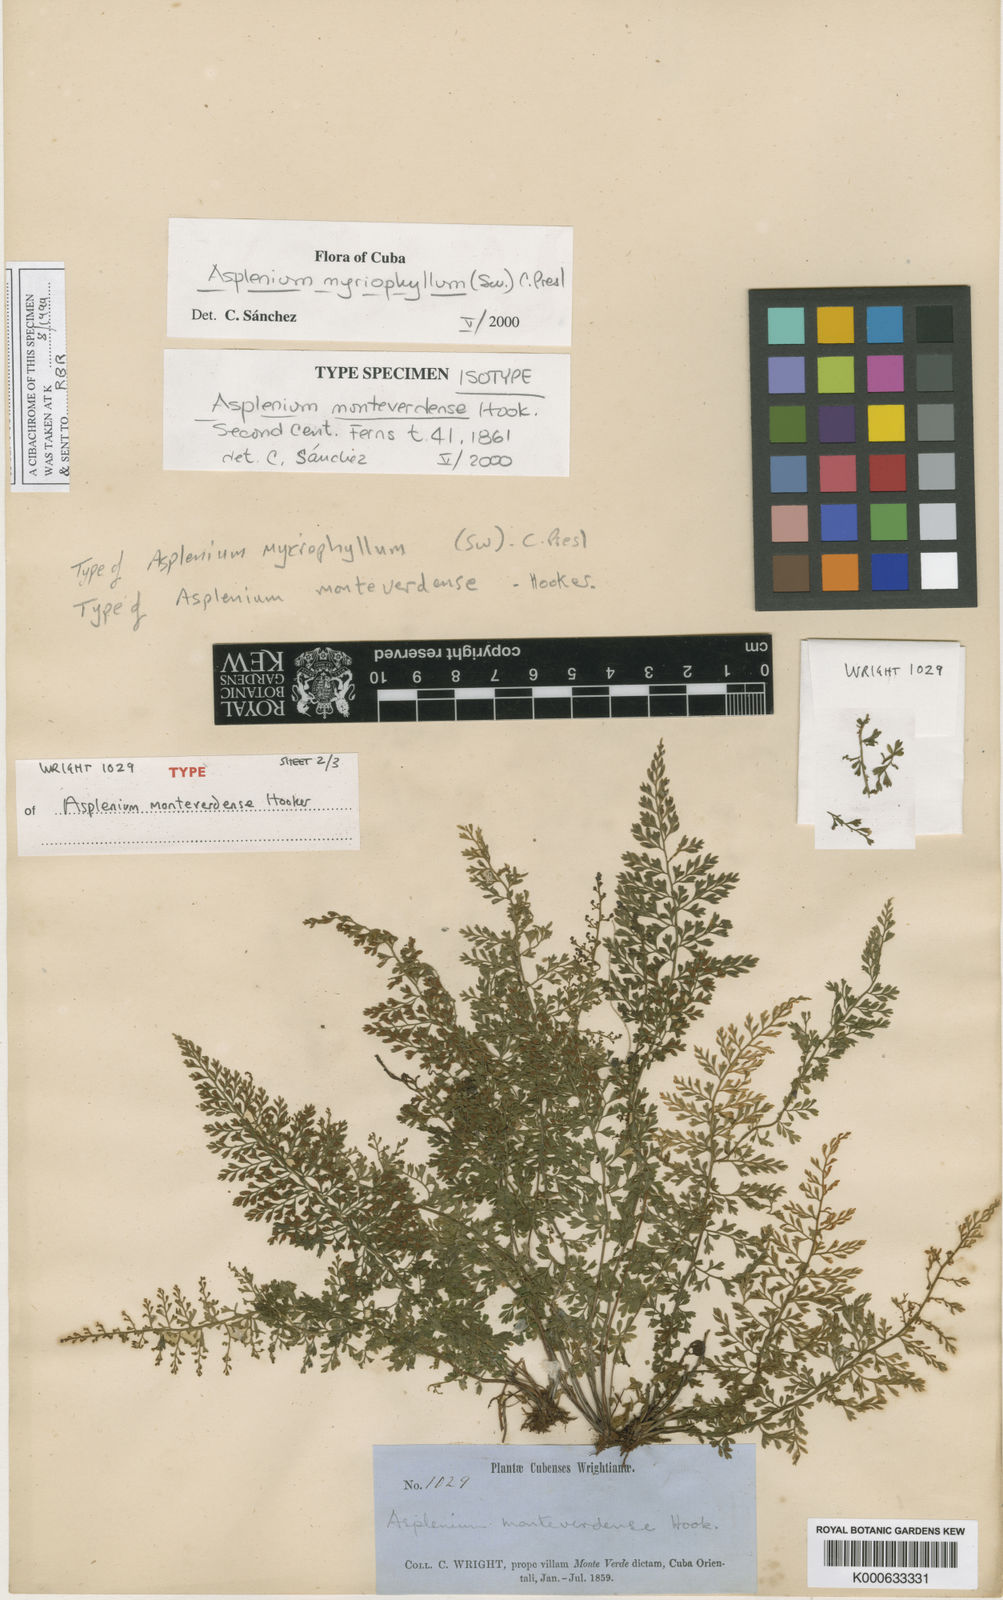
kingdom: Plantae
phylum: Tracheophyta
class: Polypodiopsida
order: Polypodiales
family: Aspleniaceae
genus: Asplenium
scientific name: Asplenium myriophyllum
